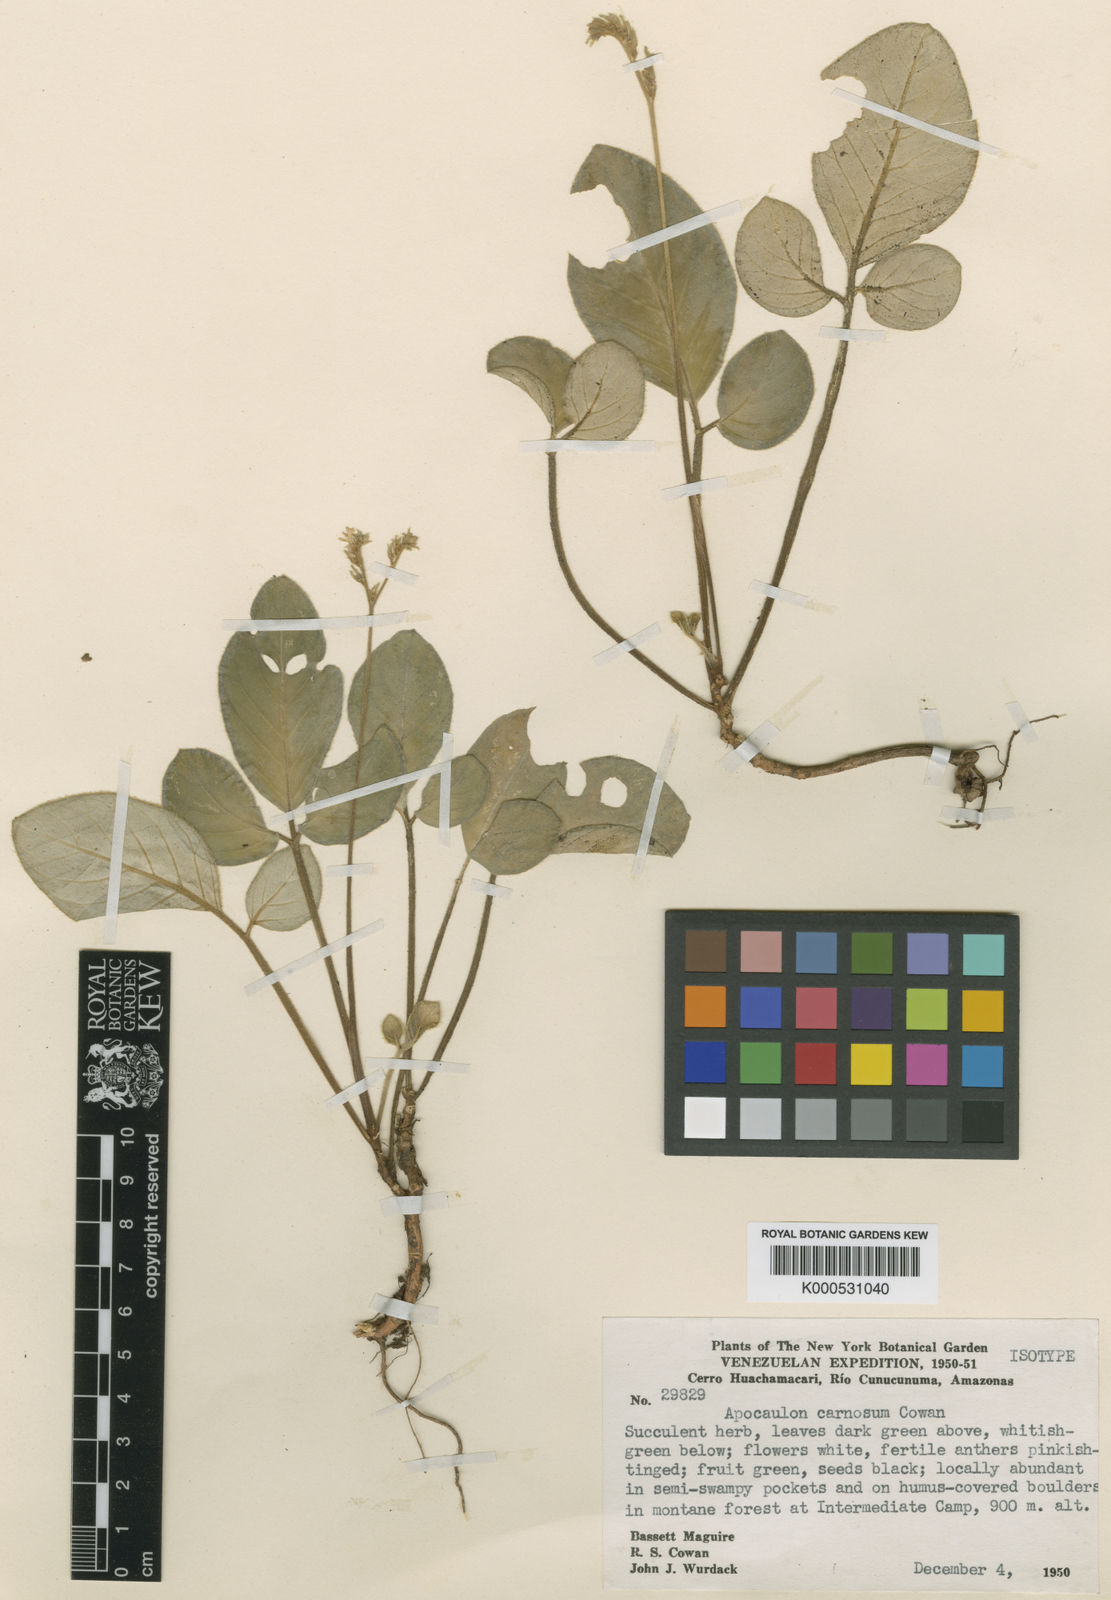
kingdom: Plantae
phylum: Tracheophyta
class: Magnoliopsida
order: Sapindales
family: Rutaceae
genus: Apocaulon
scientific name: Apocaulon carnosum
